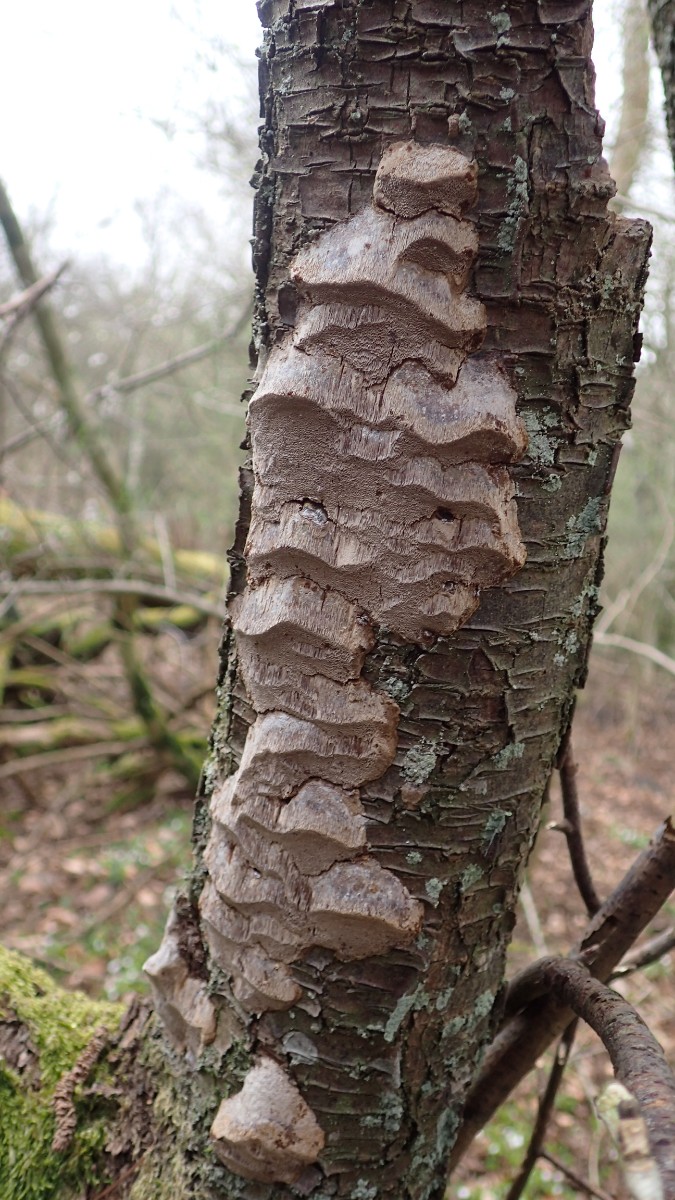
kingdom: Fungi
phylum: Basidiomycota
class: Agaricomycetes
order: Hymenochaetales
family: Hymenochaetaceae
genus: Phellinus
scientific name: Phellinus pomaceus
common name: blomme-ildporesvamp
